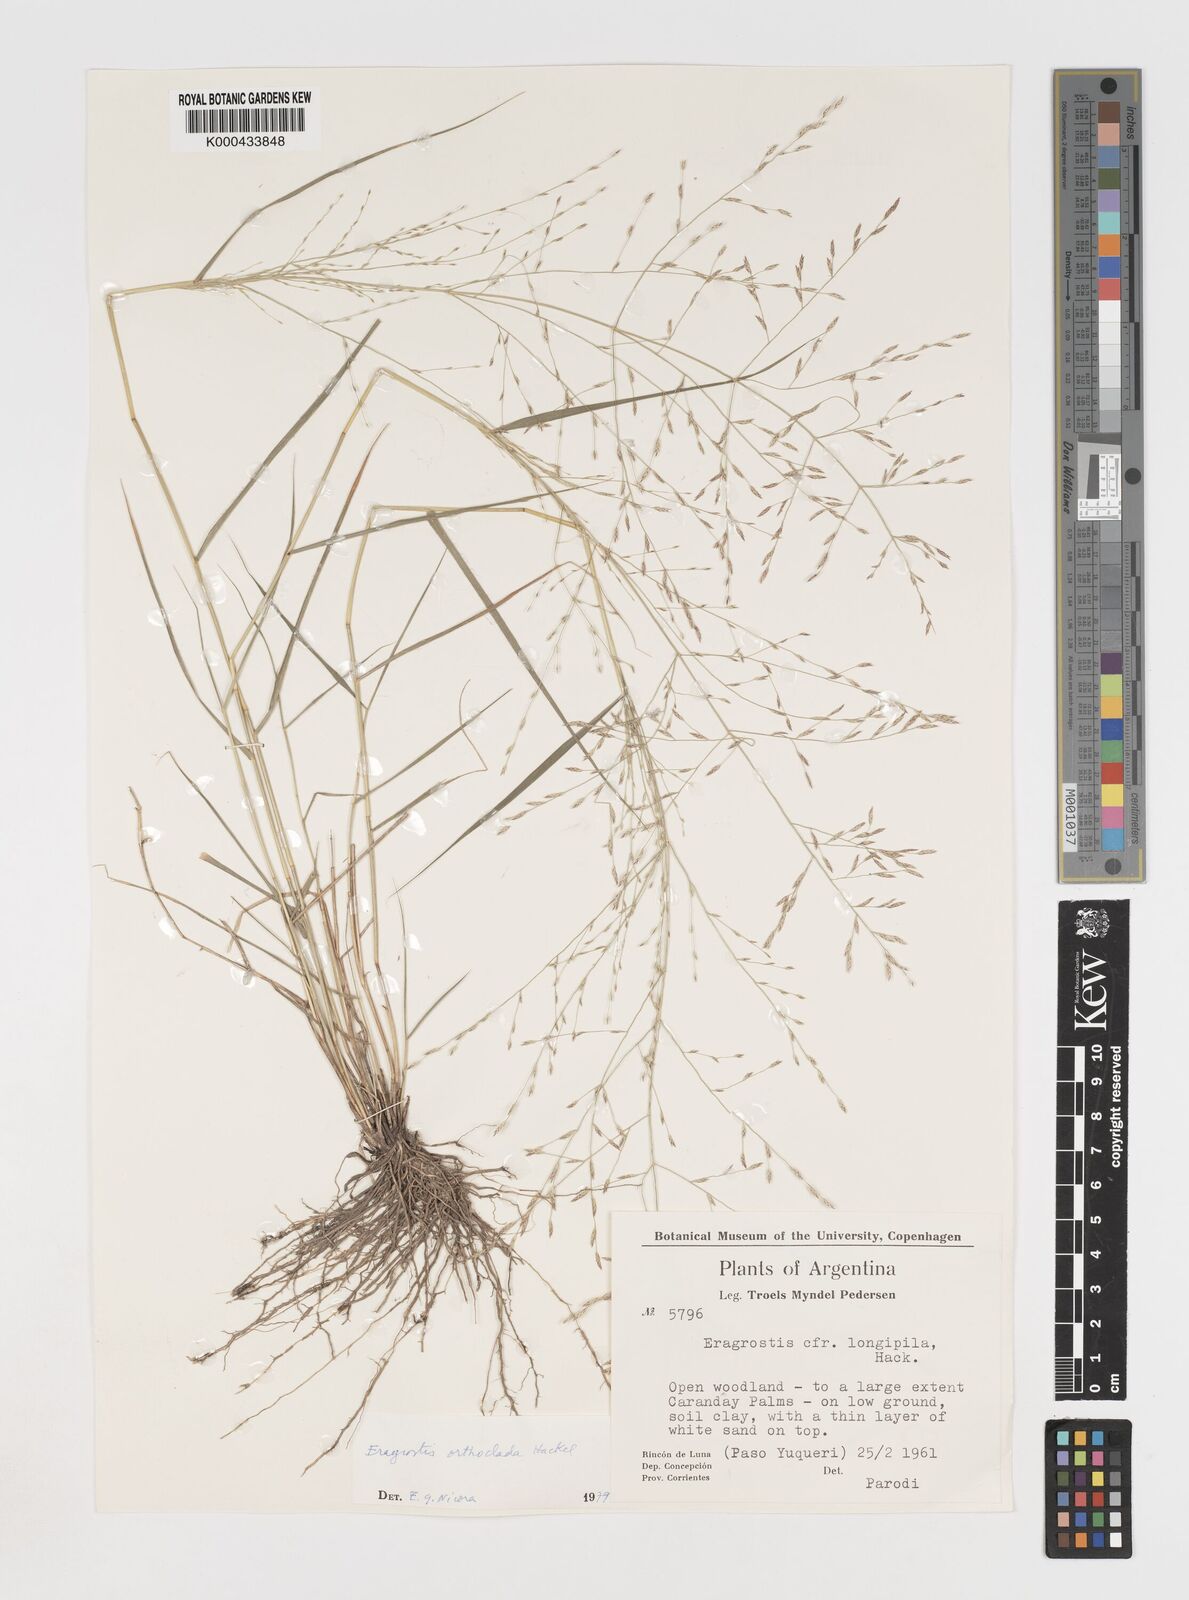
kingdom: Plantae
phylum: Tracheophyta
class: Liliopsida
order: Poales
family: Poaceae
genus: Eragrostis
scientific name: Eragrostis orthoclada
